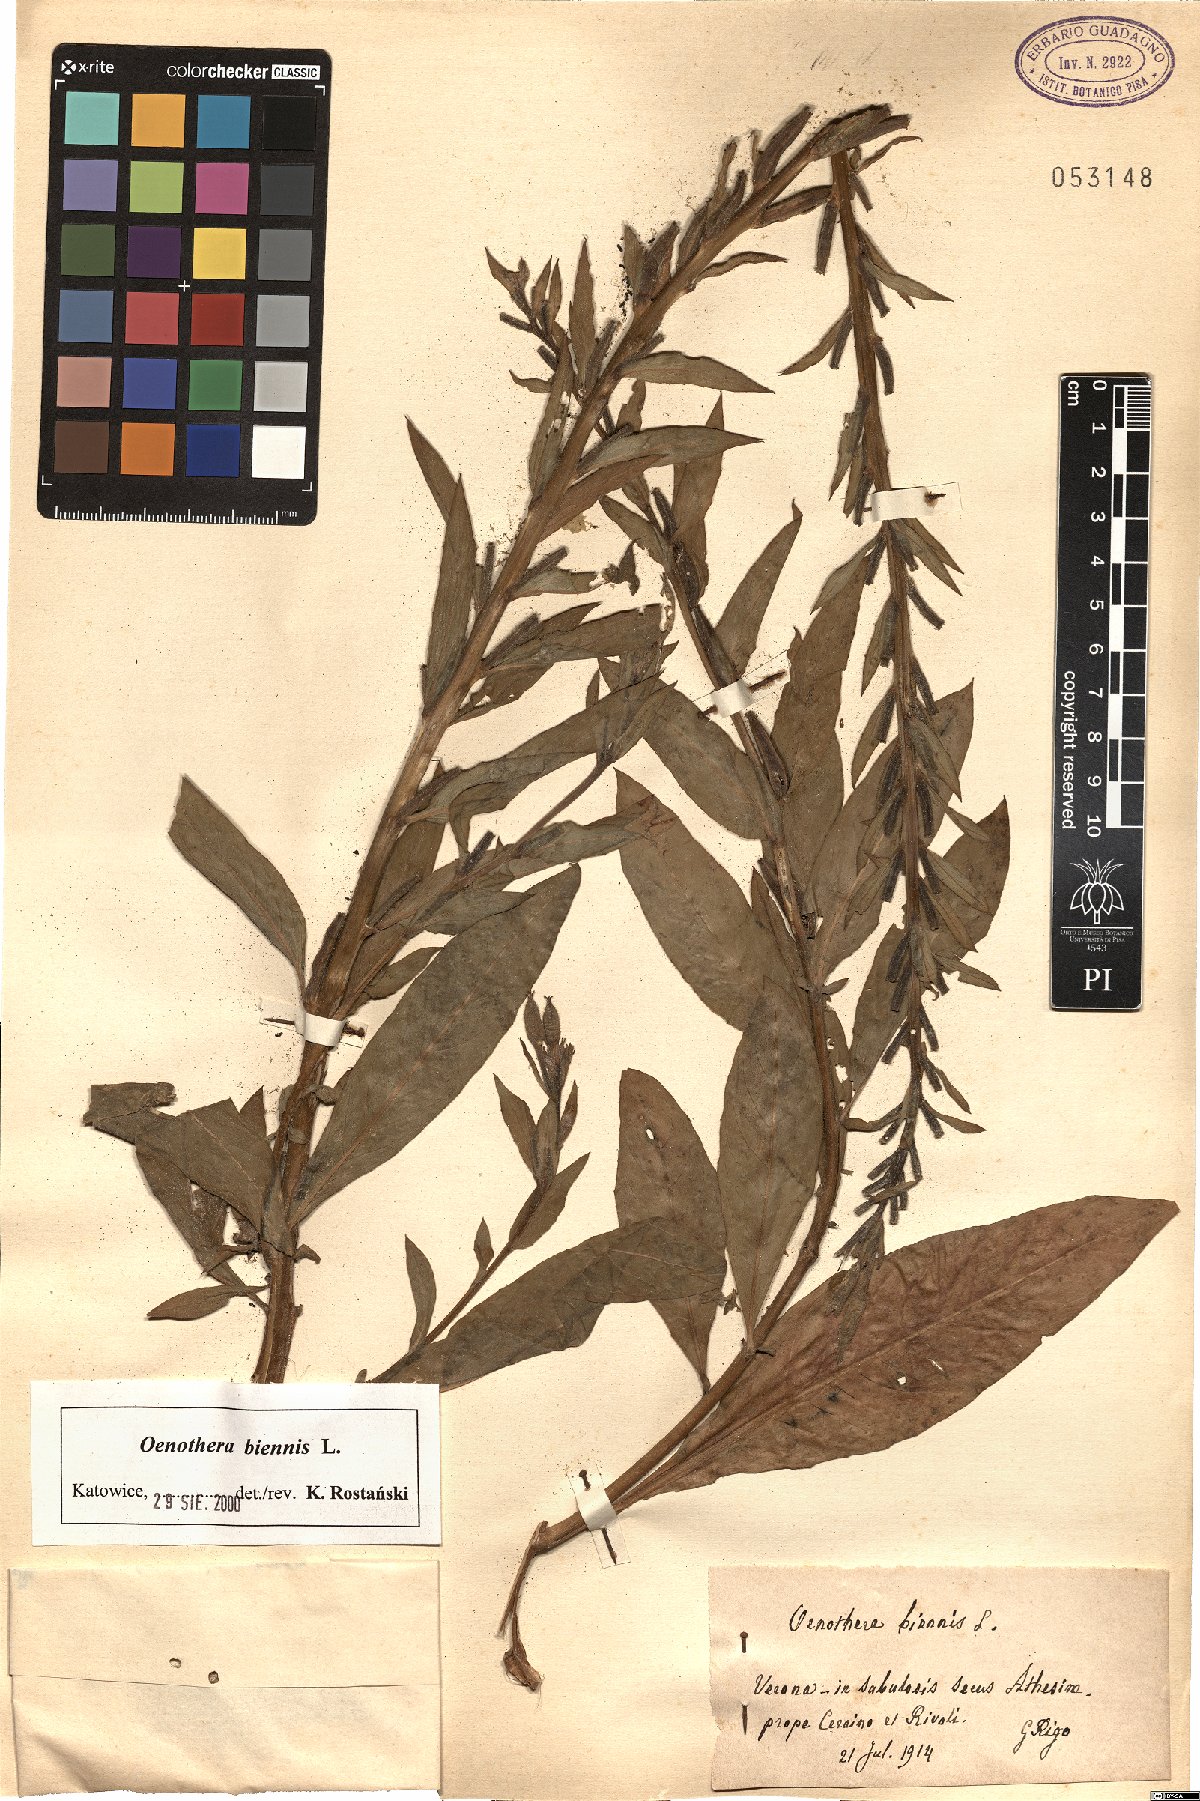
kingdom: Plantae
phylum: Tracheophyta
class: Magnoliopsida
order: Myrtales
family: Onagraceae
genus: Oenothera
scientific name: Oenothera biennis
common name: Common evening-primrose
